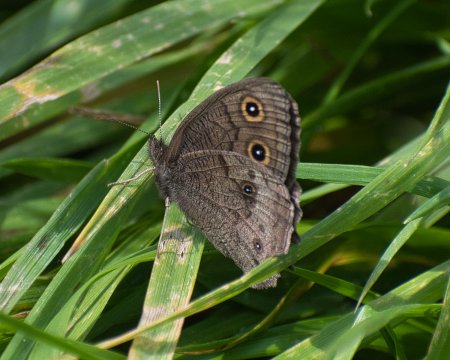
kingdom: Animalia
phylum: Arthropoda
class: Insecta
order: Lepidoptera
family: Nymphalidae
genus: Cercyonis
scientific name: Cercyonis pegala
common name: Common Wood-Nymph
